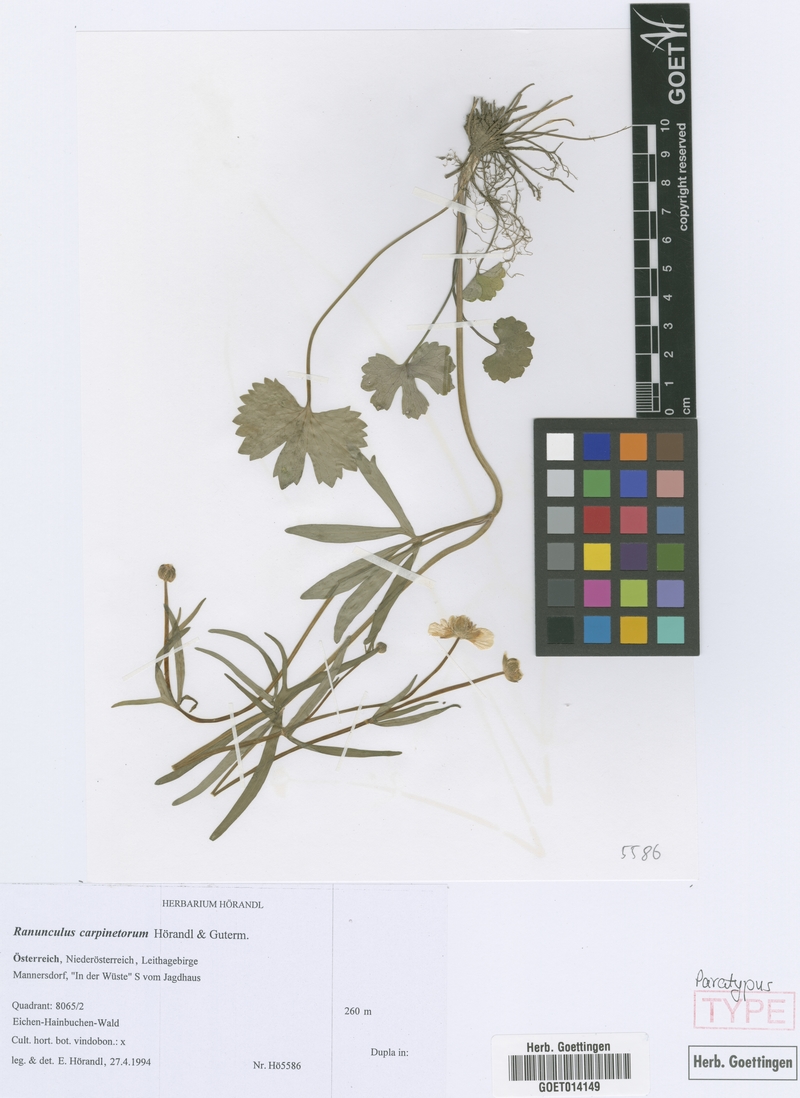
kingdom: Plantae
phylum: Tracheophyta
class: Magnoliopsida
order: Ranunculales
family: Ranunculaceae
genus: Ranunculus
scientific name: Ranunculus carpinetorum
